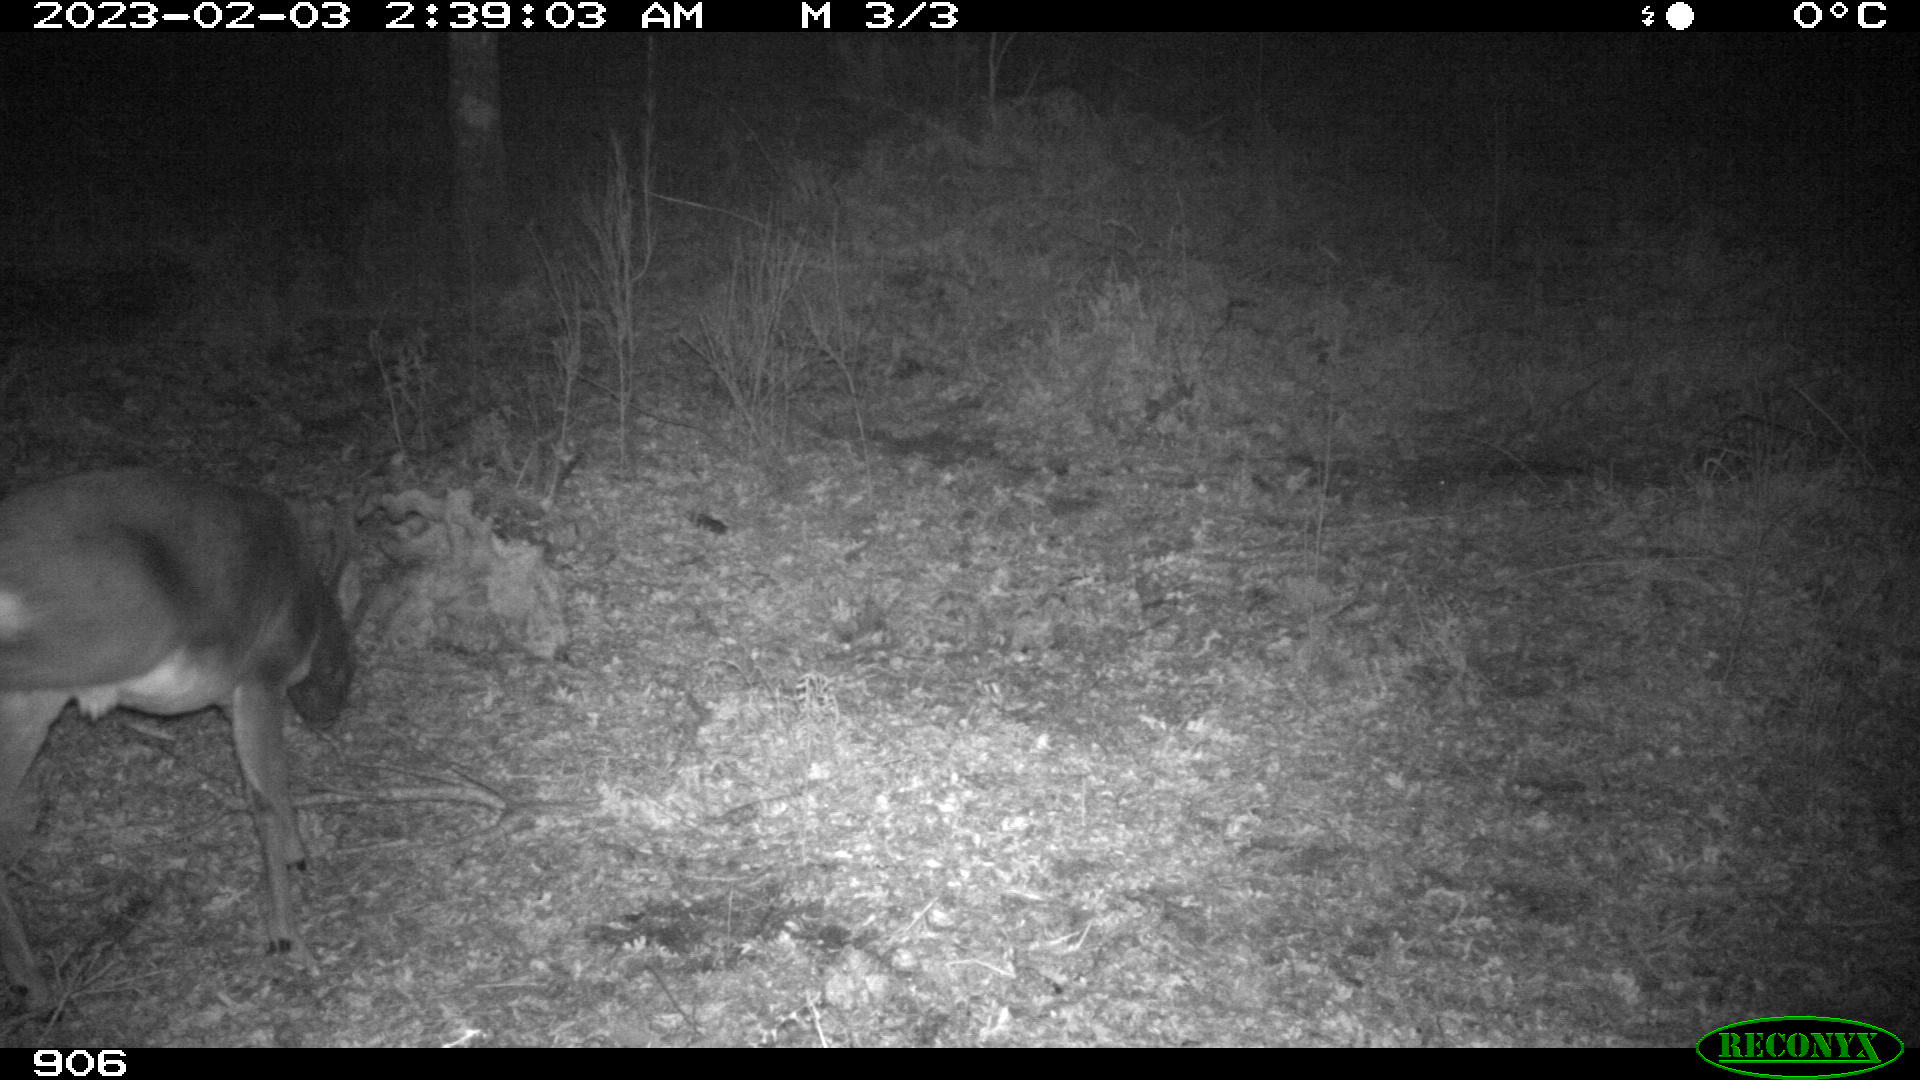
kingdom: Animalia
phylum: Chordata
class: Mammalia
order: Artiodactyla
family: Cervidae
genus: Capreolus
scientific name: Capreolus capreolus
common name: Western roe deer
